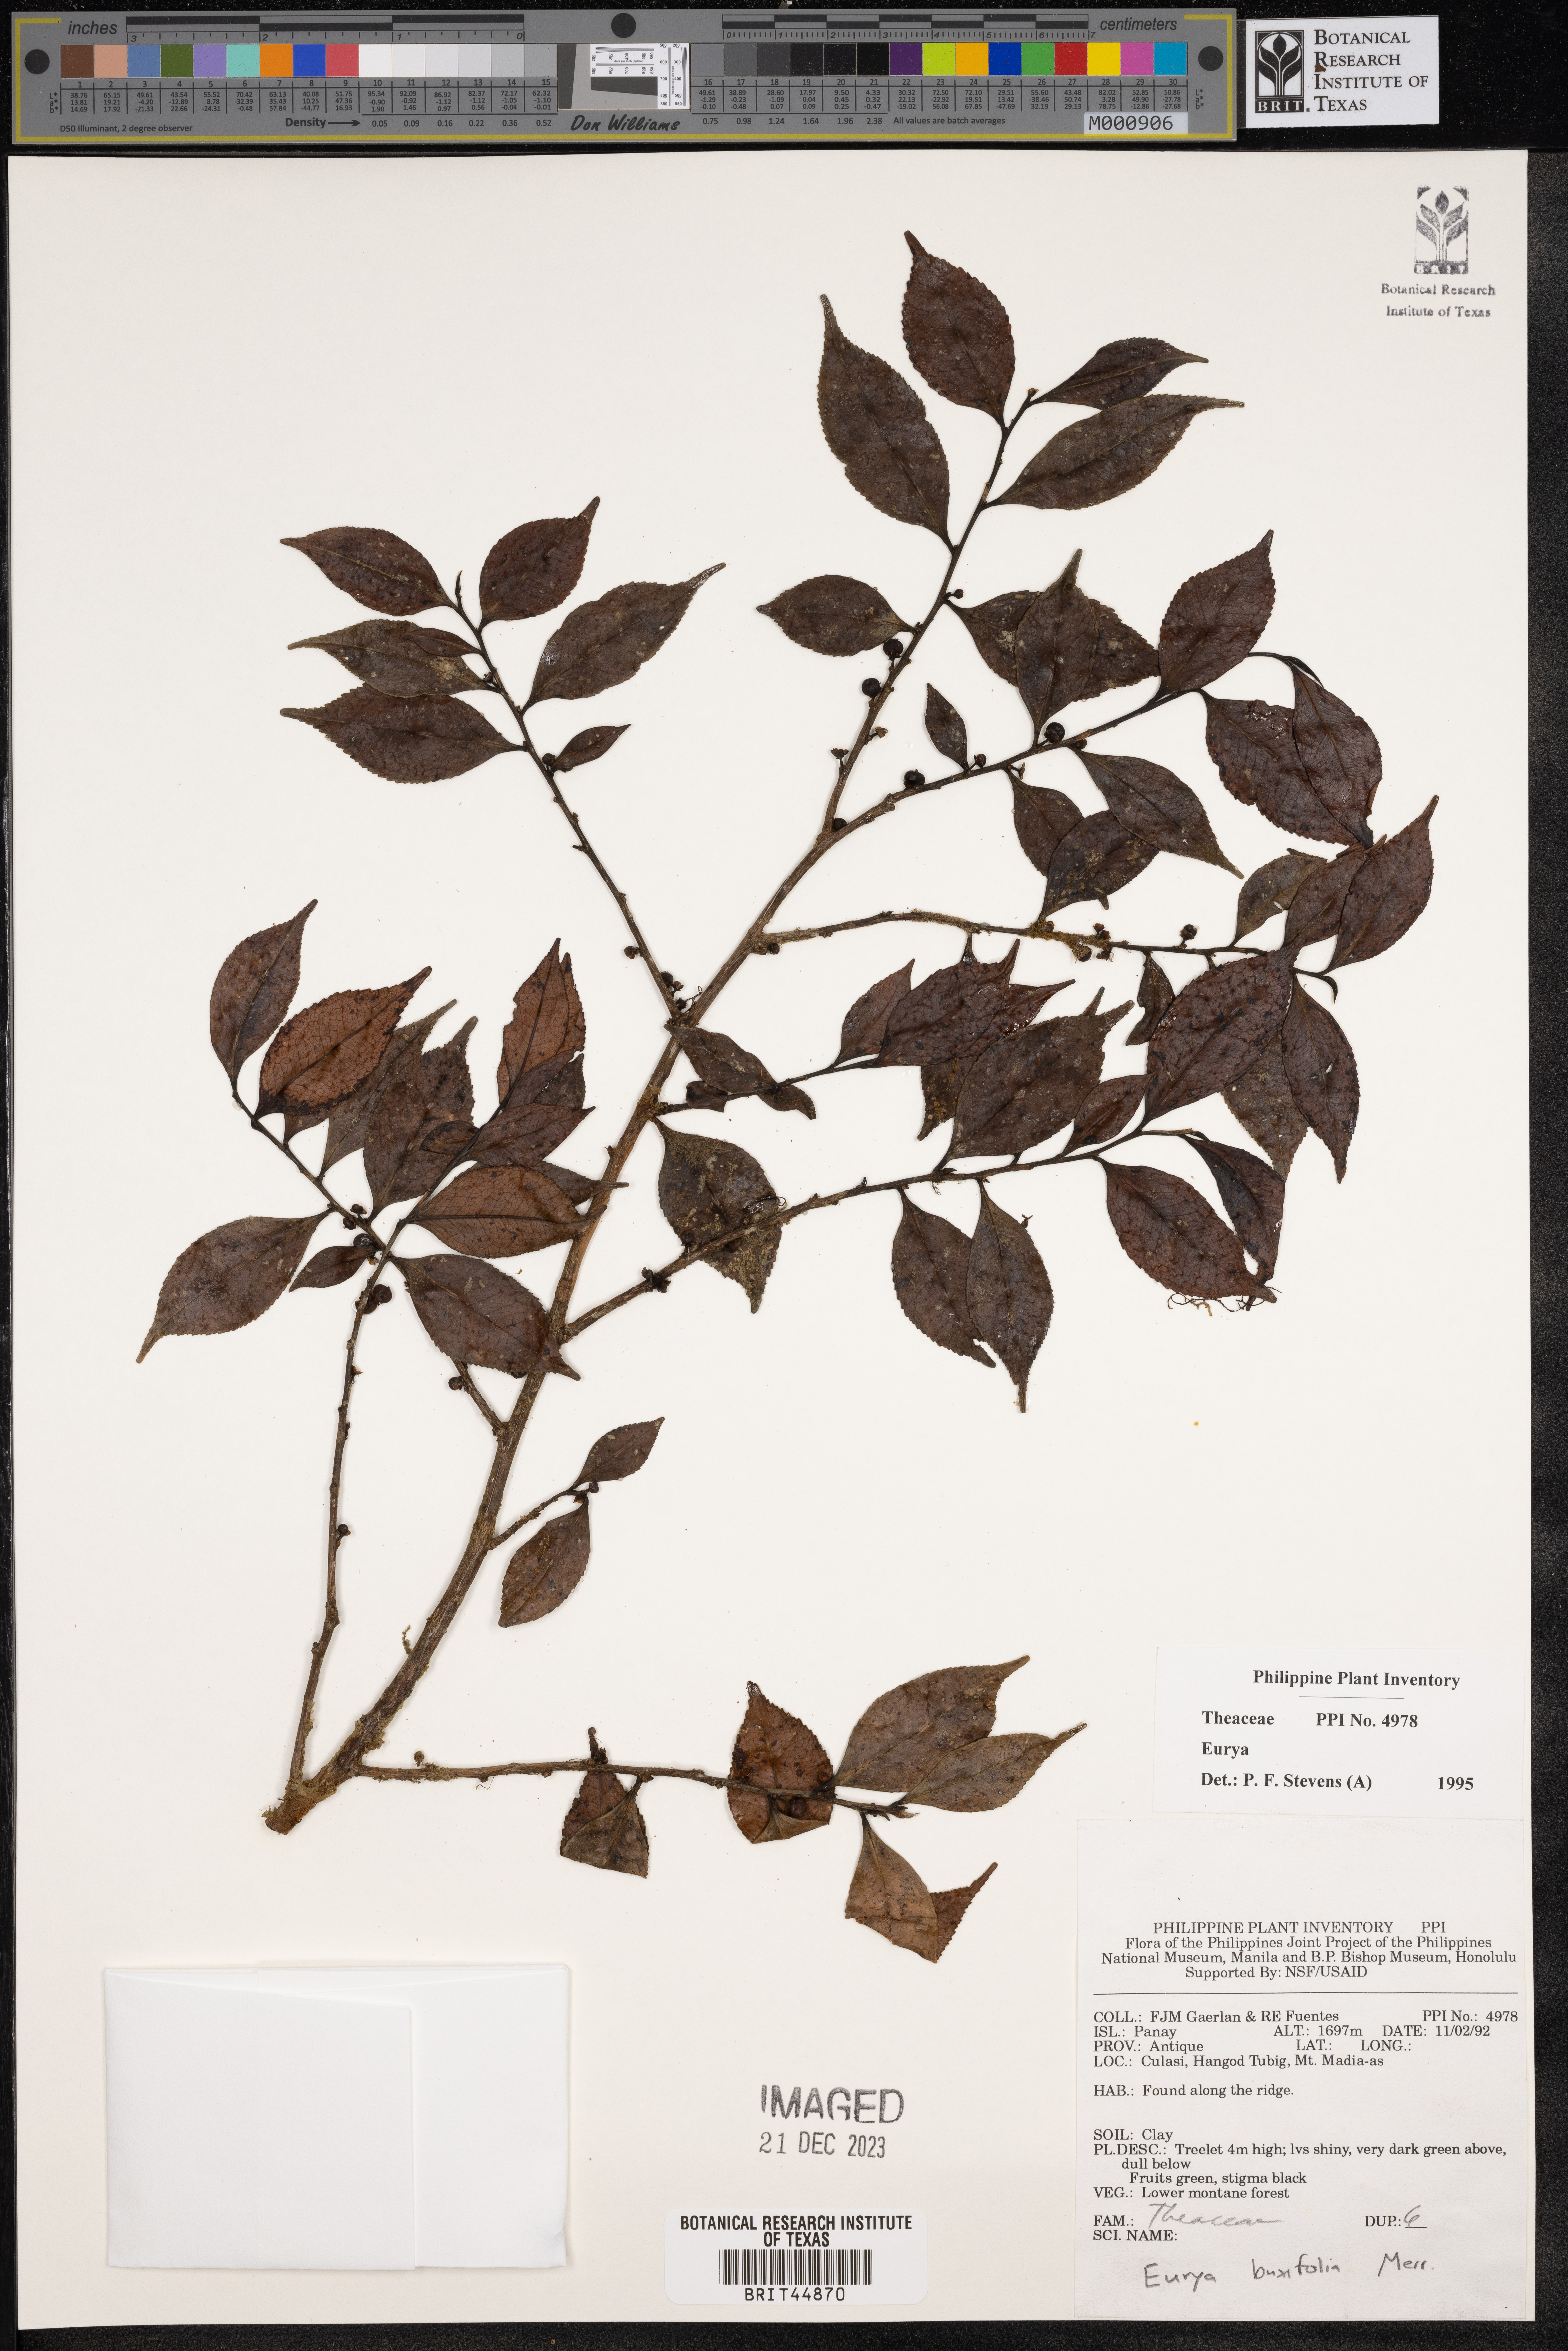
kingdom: Plantae
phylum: Tracheophyta
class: Magnoliopsida
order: Ericales
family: Pentaphylacaceae
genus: Eurya
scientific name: Eurya
